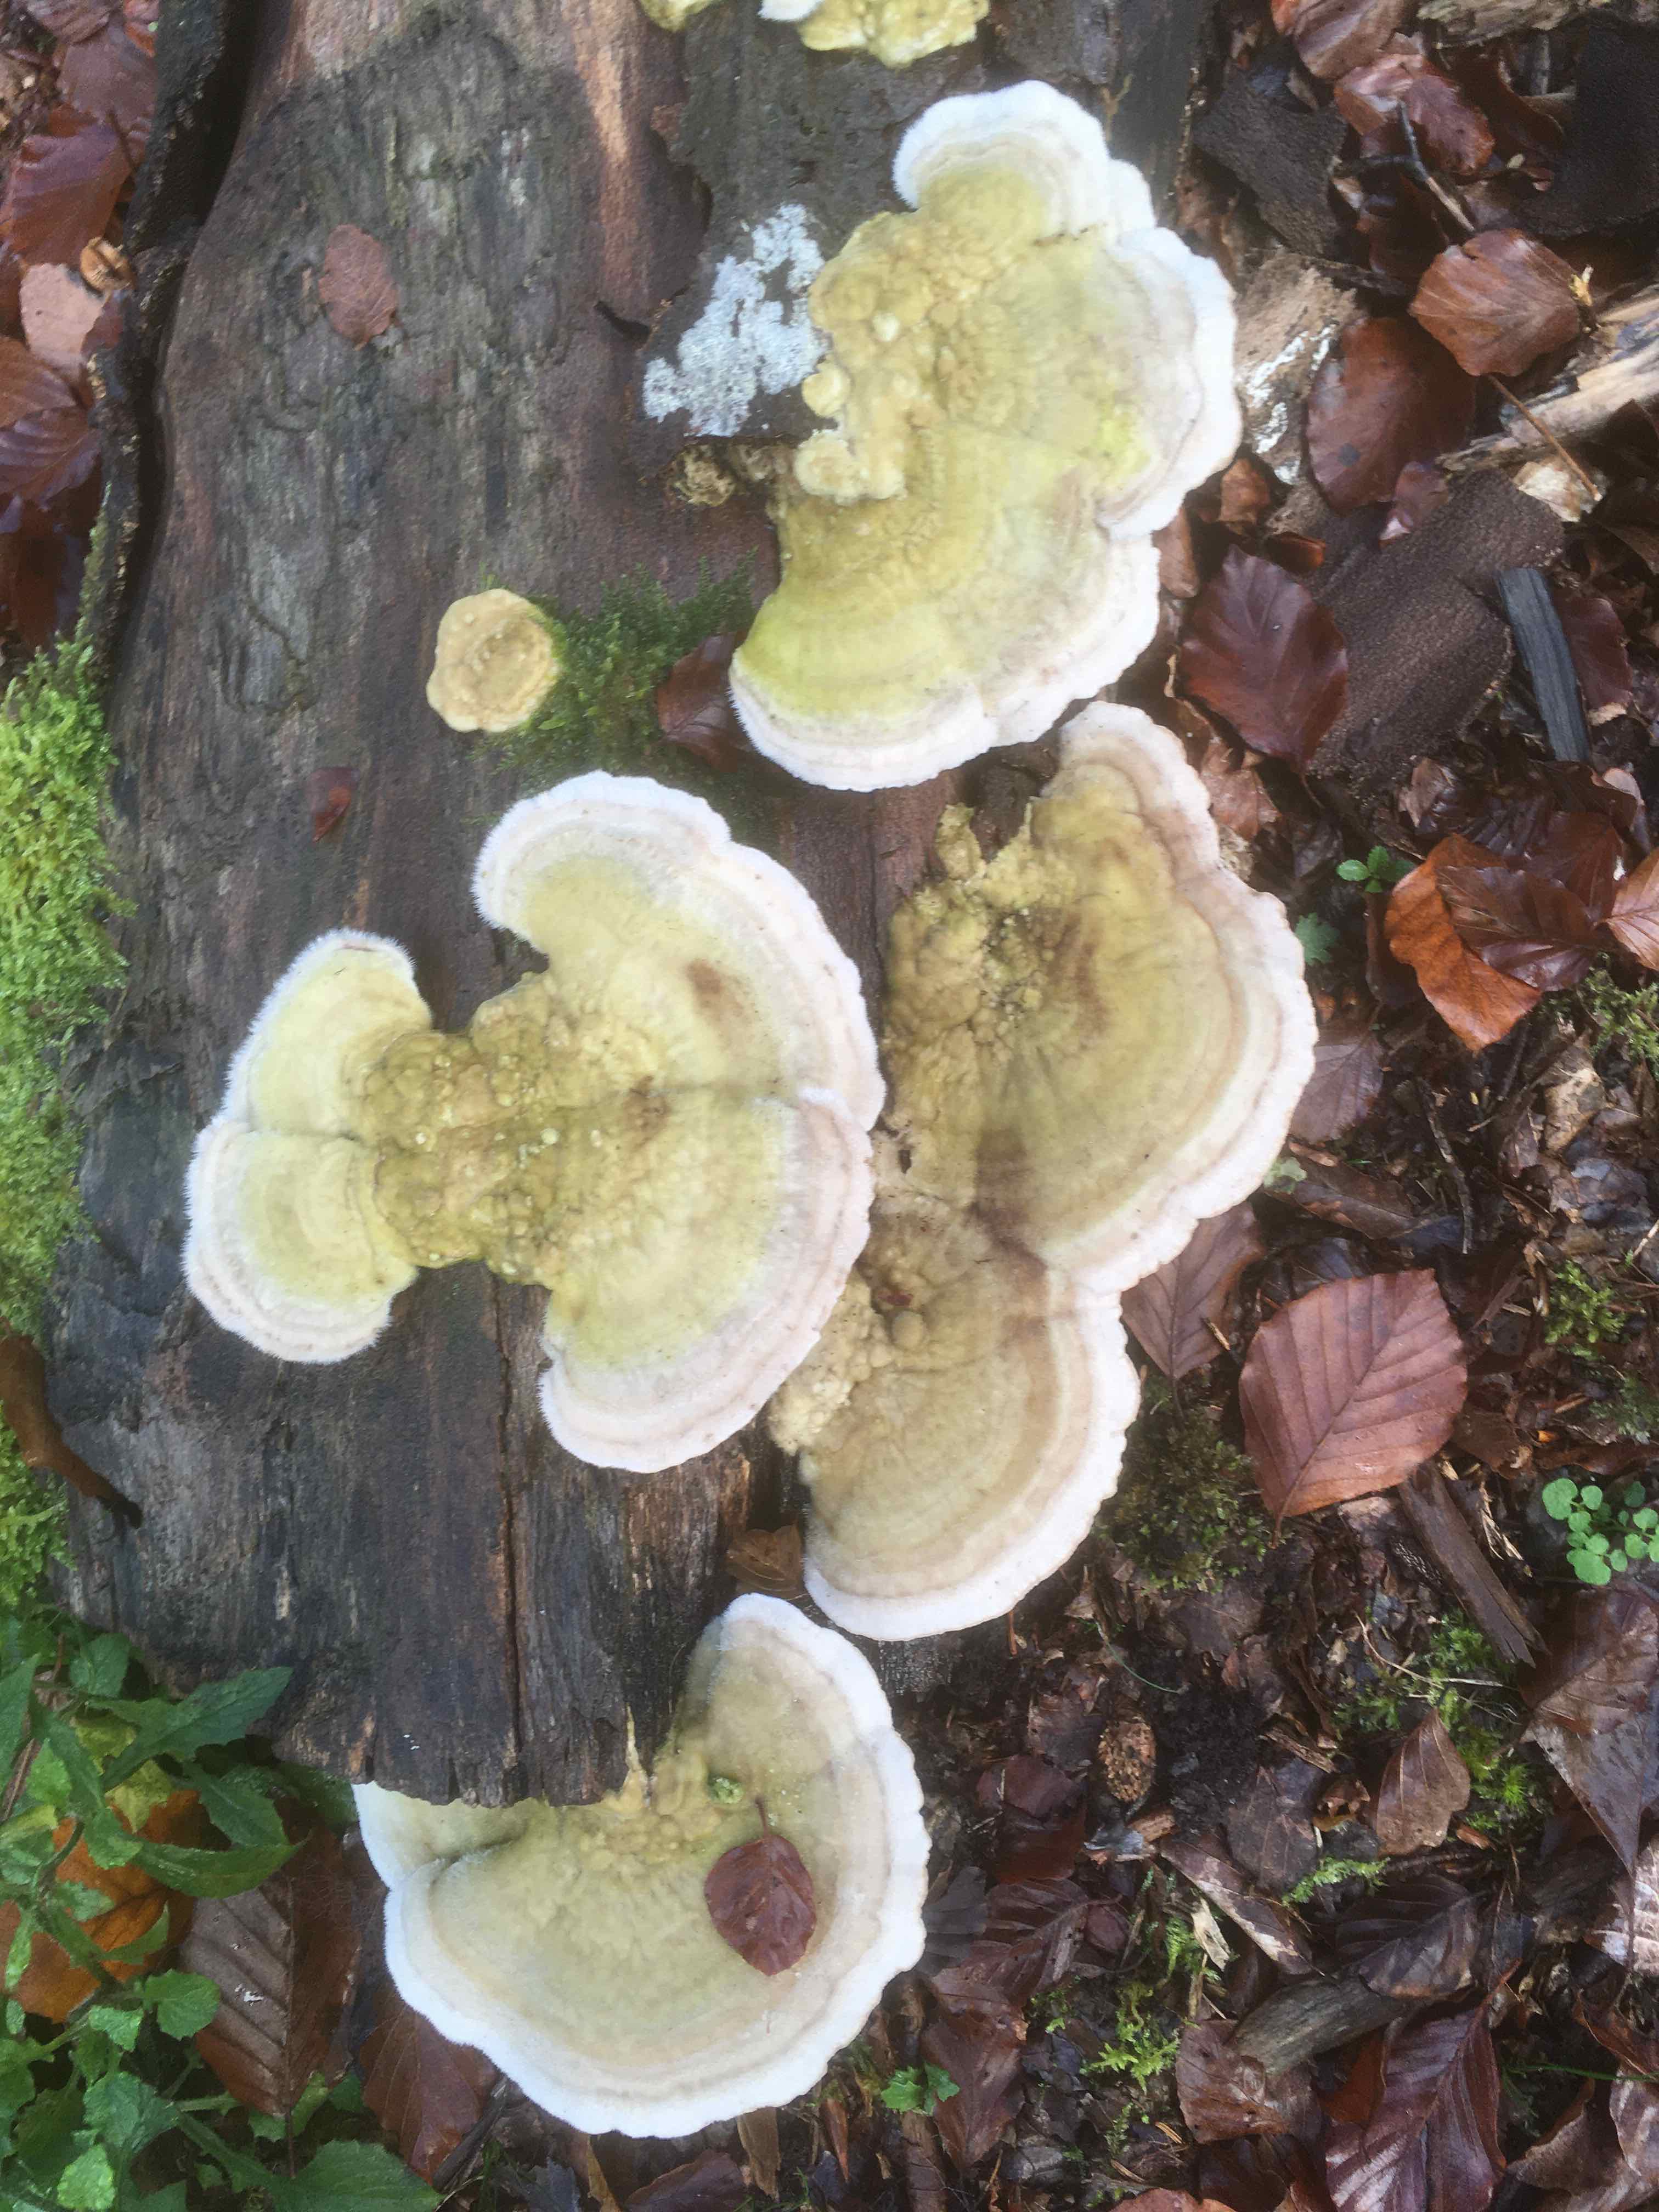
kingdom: Fungi
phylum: Basidiomycota
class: Agaricomycetes
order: Polyporales
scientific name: Polyporales
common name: poresvampordenen
